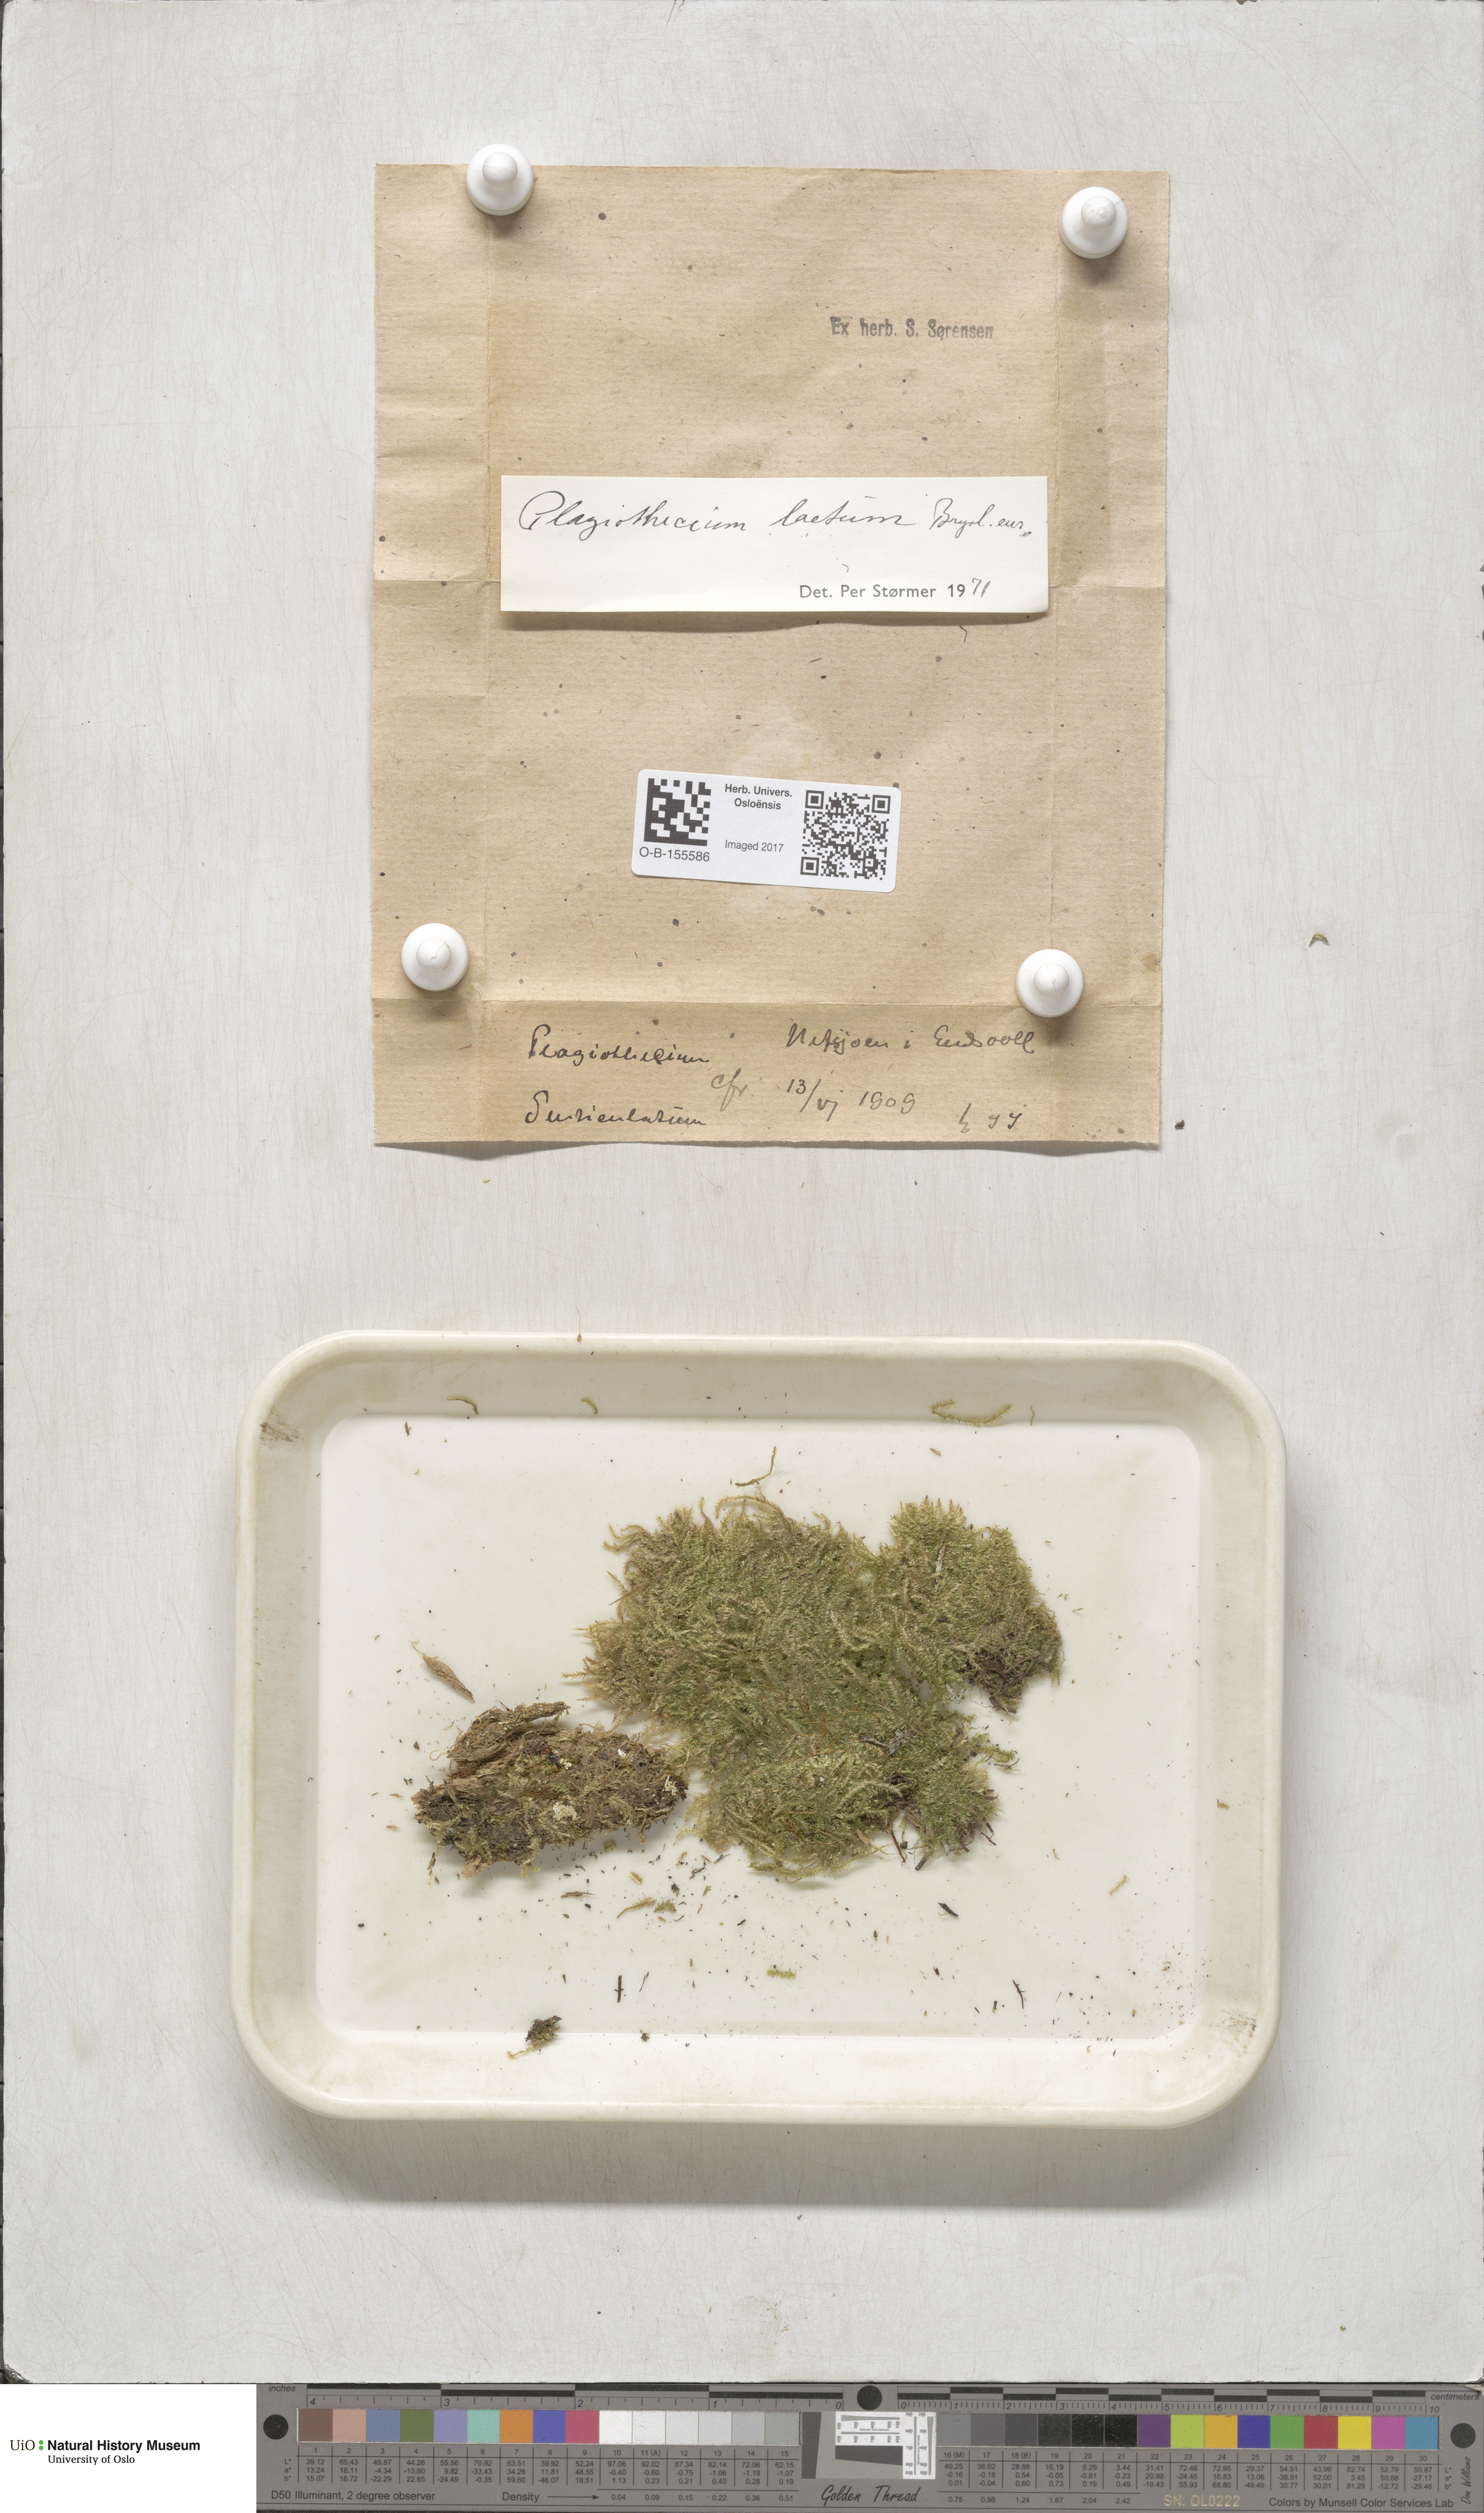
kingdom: Plantae
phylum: Bryophyta
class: Bryopsida
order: Hypnales
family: Plagiotheciaceae
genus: Plagiothecium
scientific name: Plagiothecium laetum
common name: Bright silk moss
